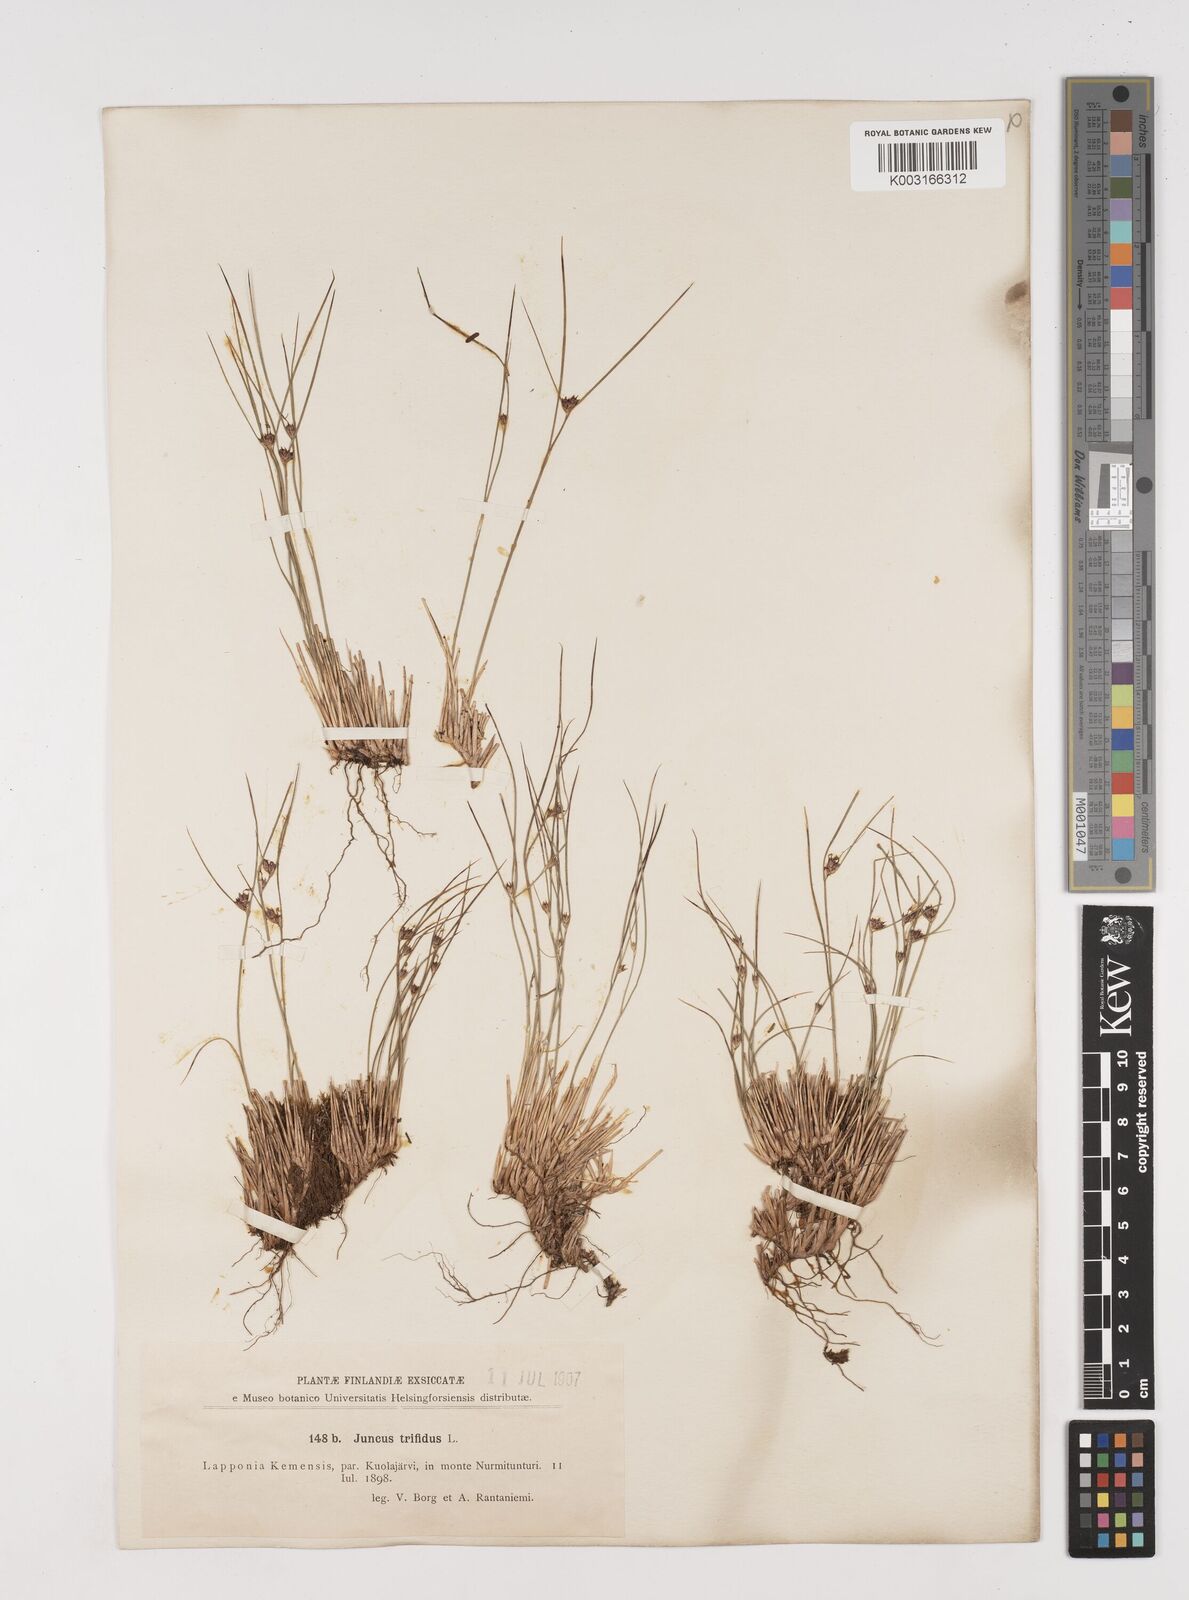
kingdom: Plantae
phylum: Tracheophyta
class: Liliopsida
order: Poales
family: Juncaceae
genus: Oreojuncus
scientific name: Oreojuncus trifidus
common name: Highland rush
